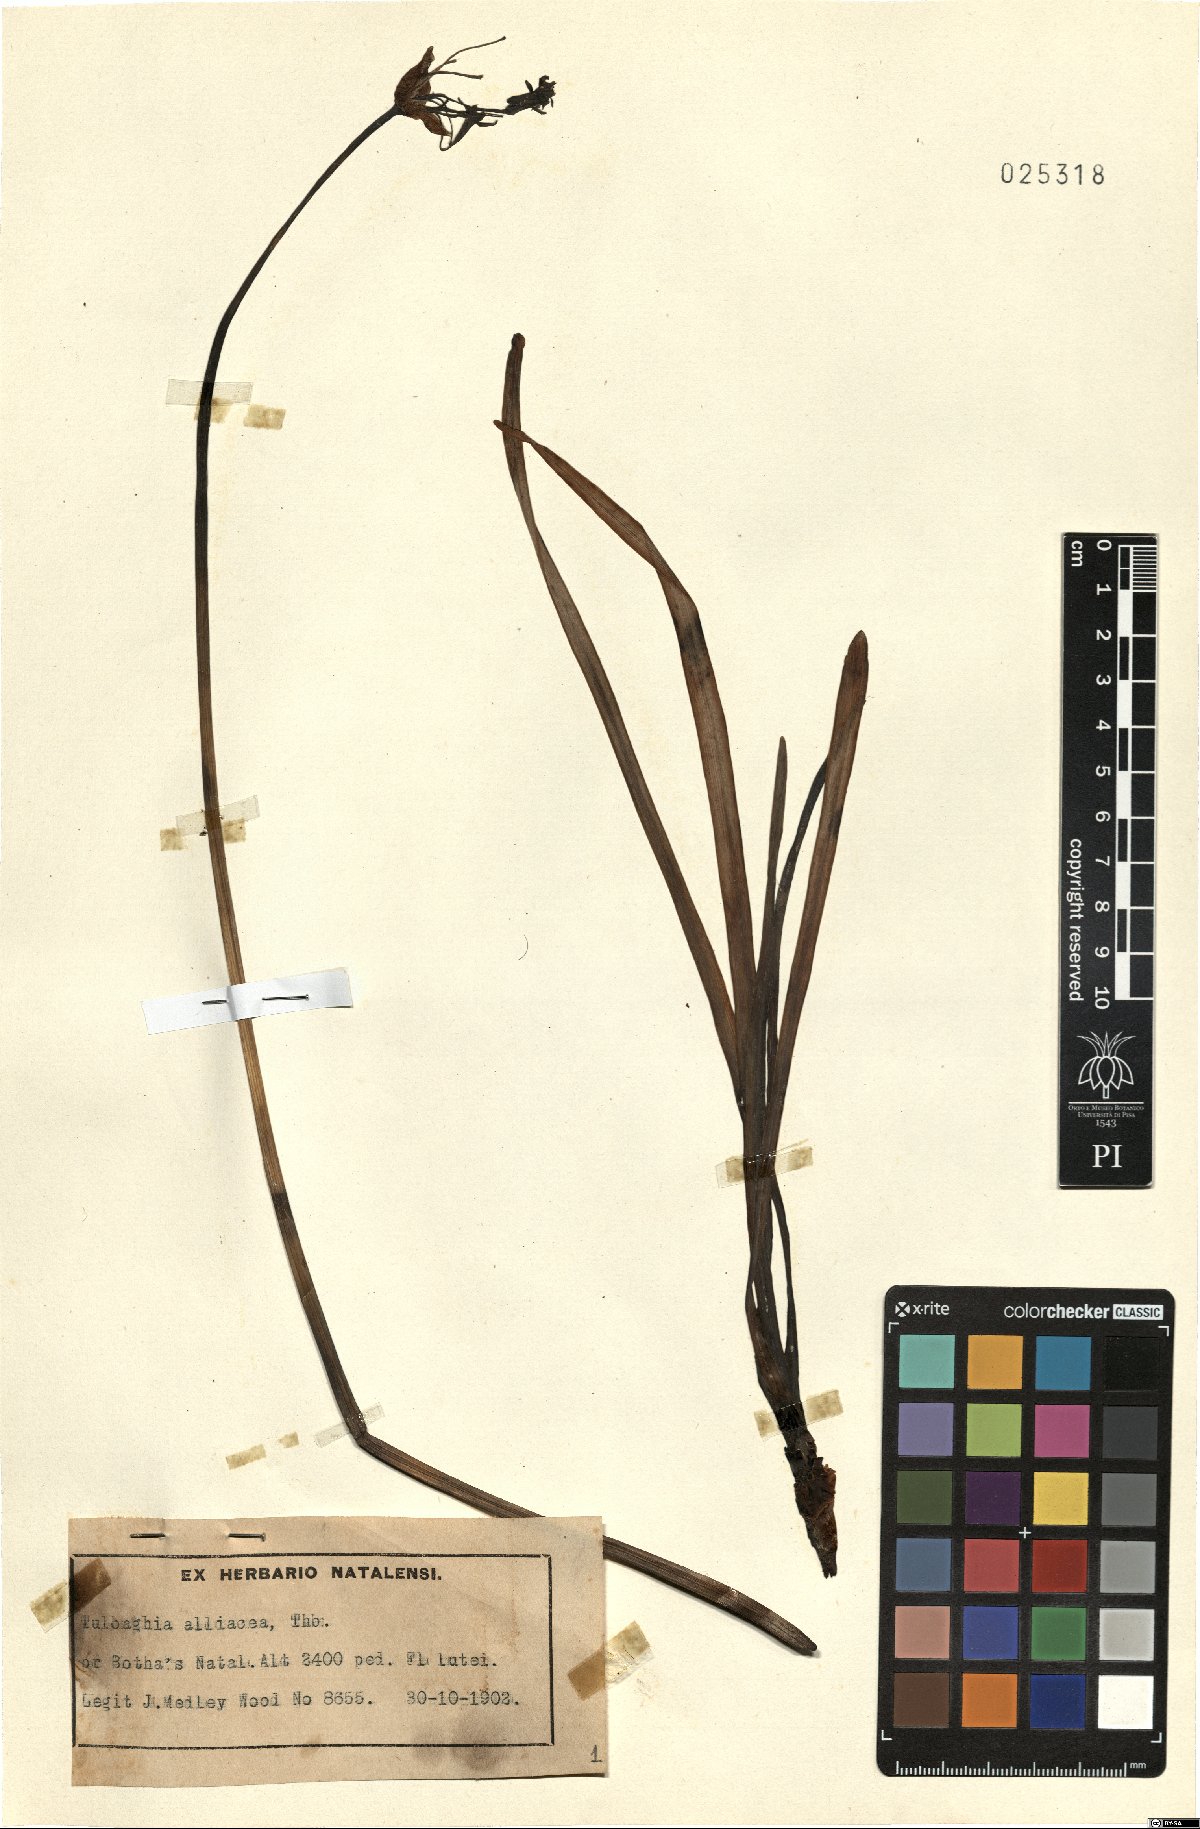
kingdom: Plantae
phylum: Tracheophyta
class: Liliopsida
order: Asparagales
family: Amaryllidaceae
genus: Tulbaghia
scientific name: Tulbaghia alliacea
